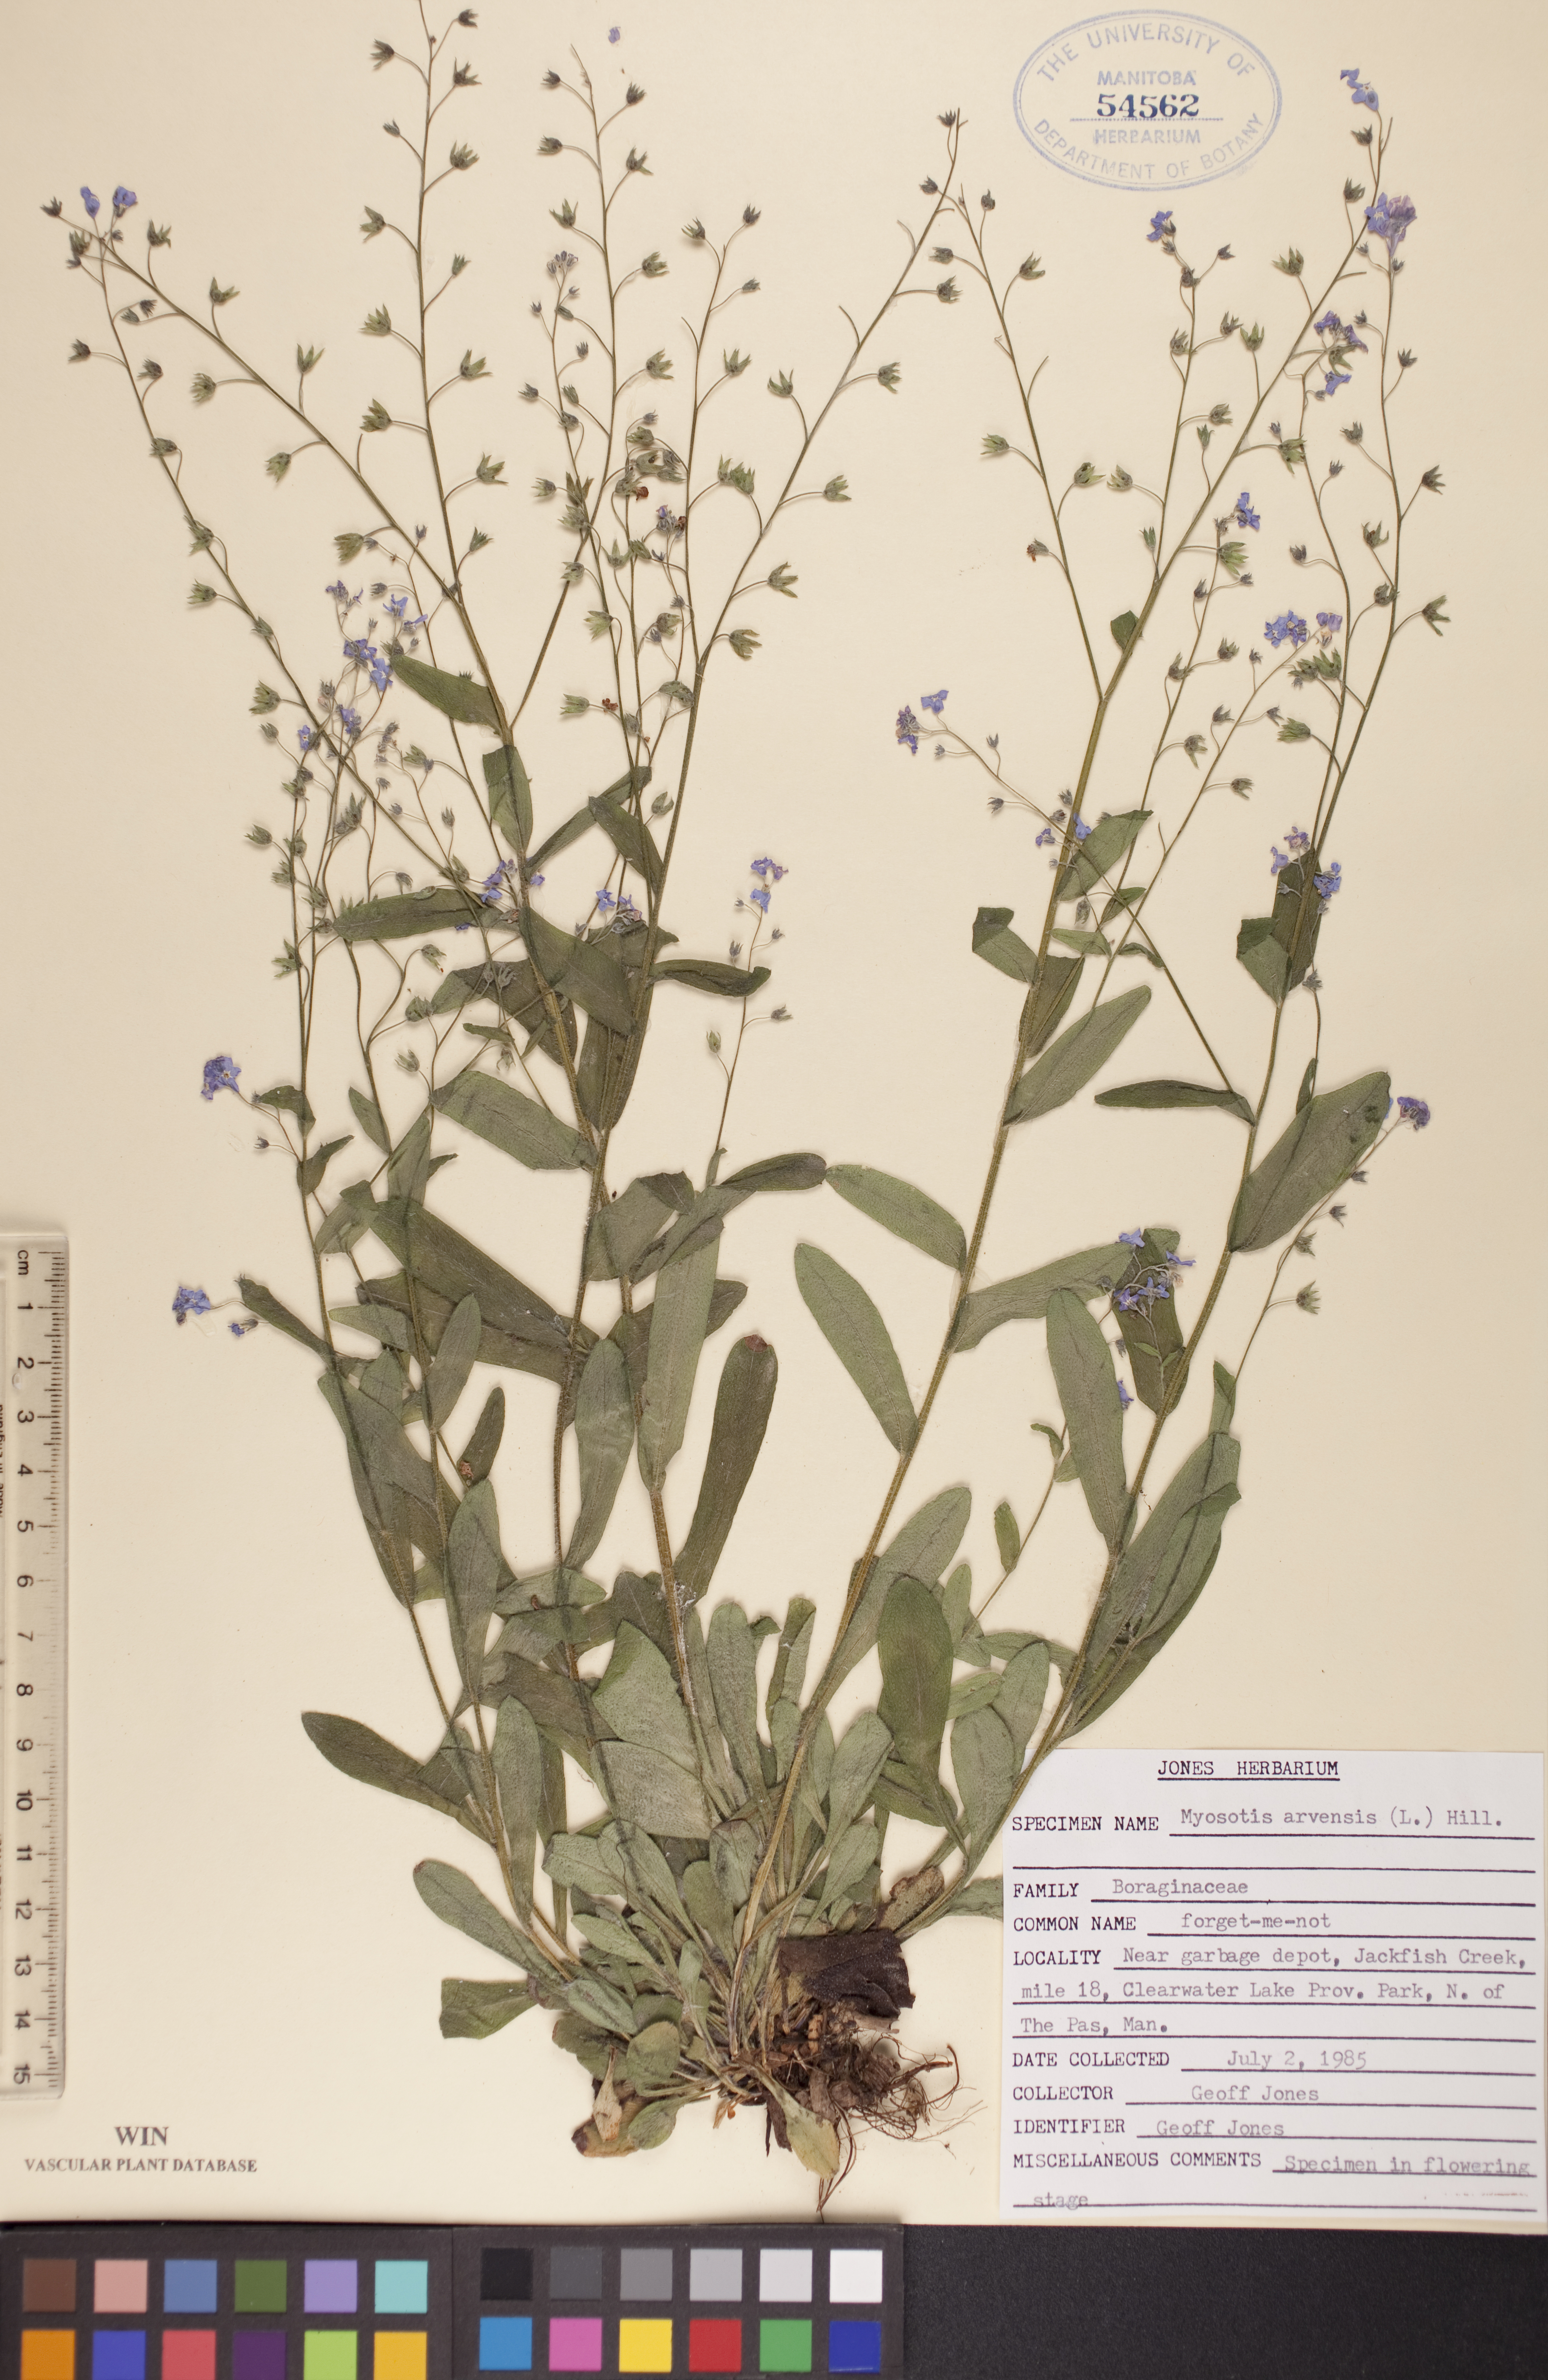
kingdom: Plantae
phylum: Tracheophyta
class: Magnoliopsida
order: Boraginales
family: Boraginaceae
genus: Myosotis
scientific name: Myosotis arvensis
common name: Field forget-me-not
